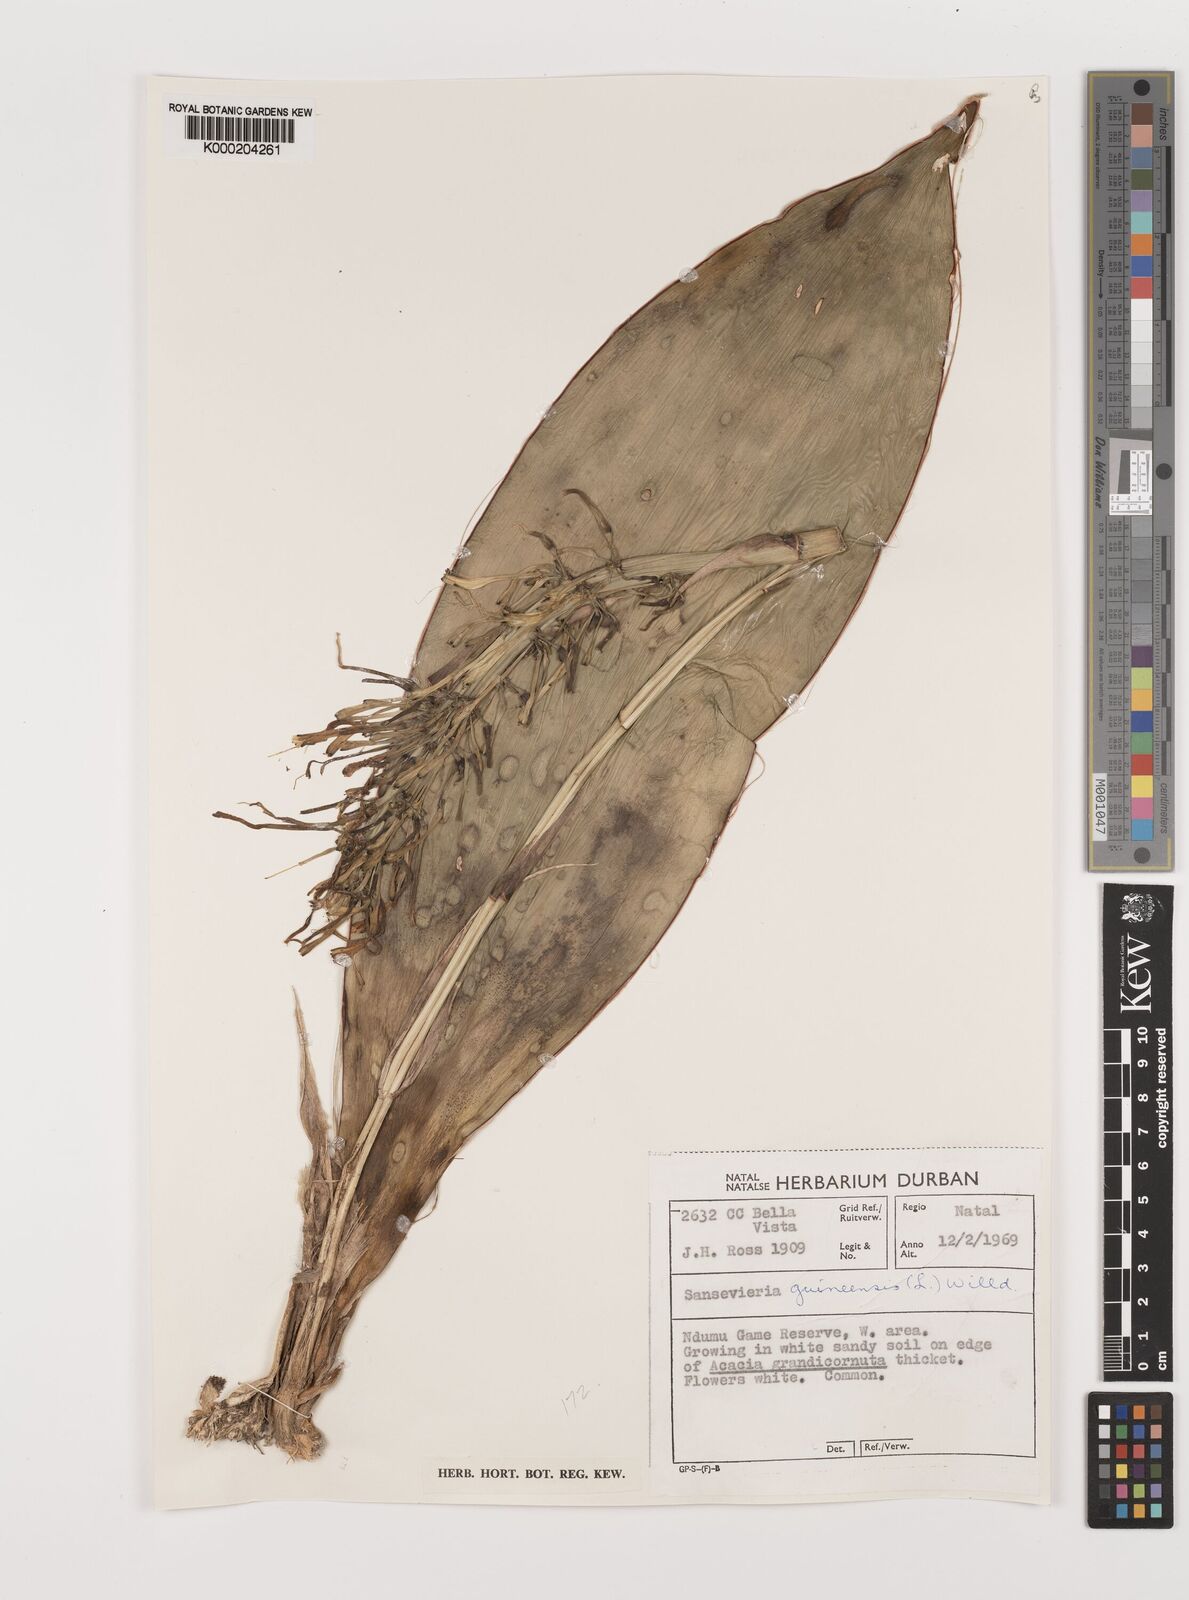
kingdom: Plantae
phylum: Tracheophyta
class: Liliopsida
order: Asparagales
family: Asparagaceae
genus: Dracaena
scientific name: Dracaena hyacinthoides
